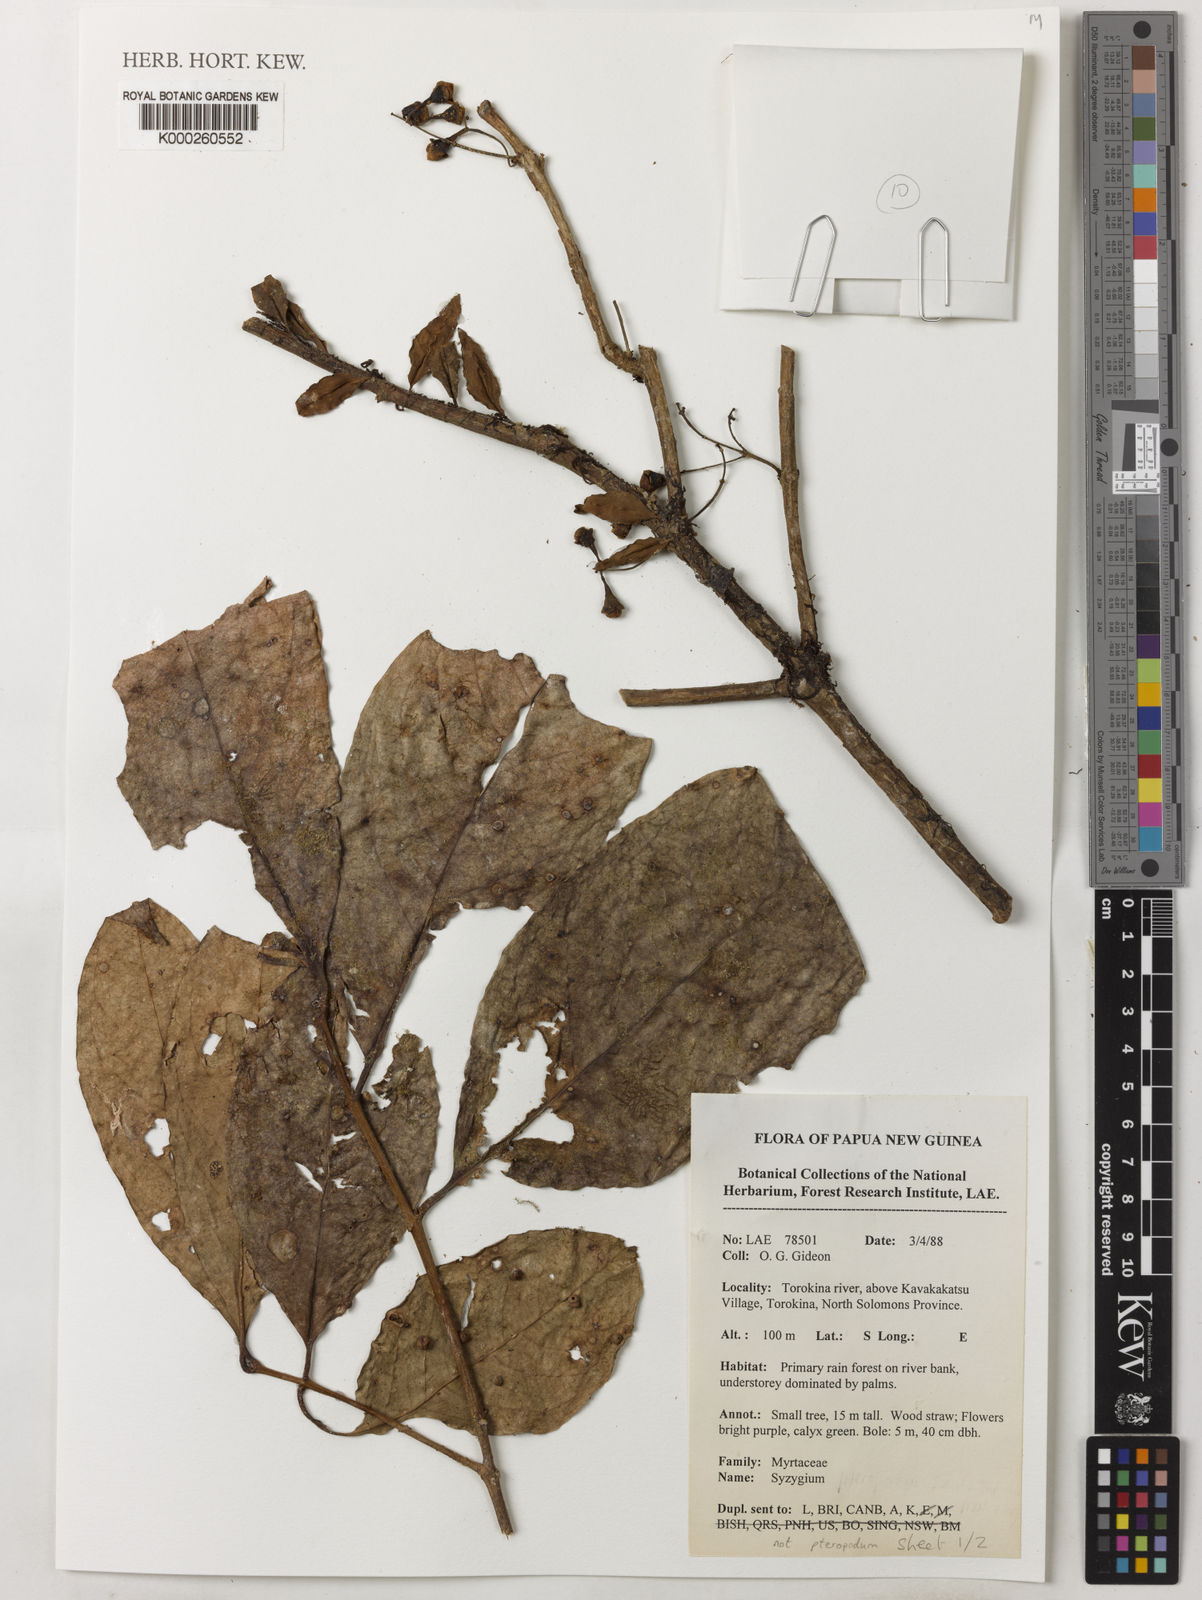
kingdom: Plantae
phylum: Tracheophyta
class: Magnoliopsida
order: Myrtales
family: Myrtaceae
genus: Syzygium
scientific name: Syzygium
